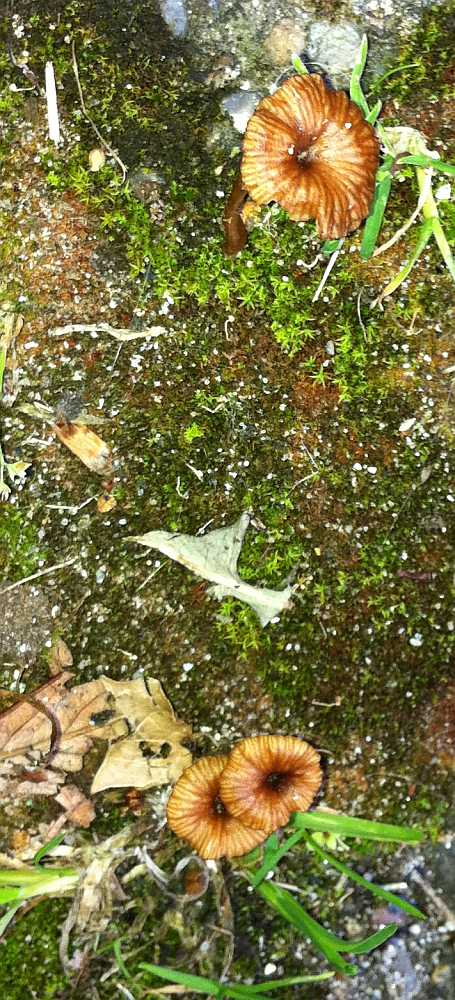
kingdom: Fungi
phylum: Basidiomycota
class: Agaricomycetes
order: Agaricales
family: Tricholomataceae
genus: Omphalina
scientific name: Omphalina pyxidata
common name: rødbrun navlehat
